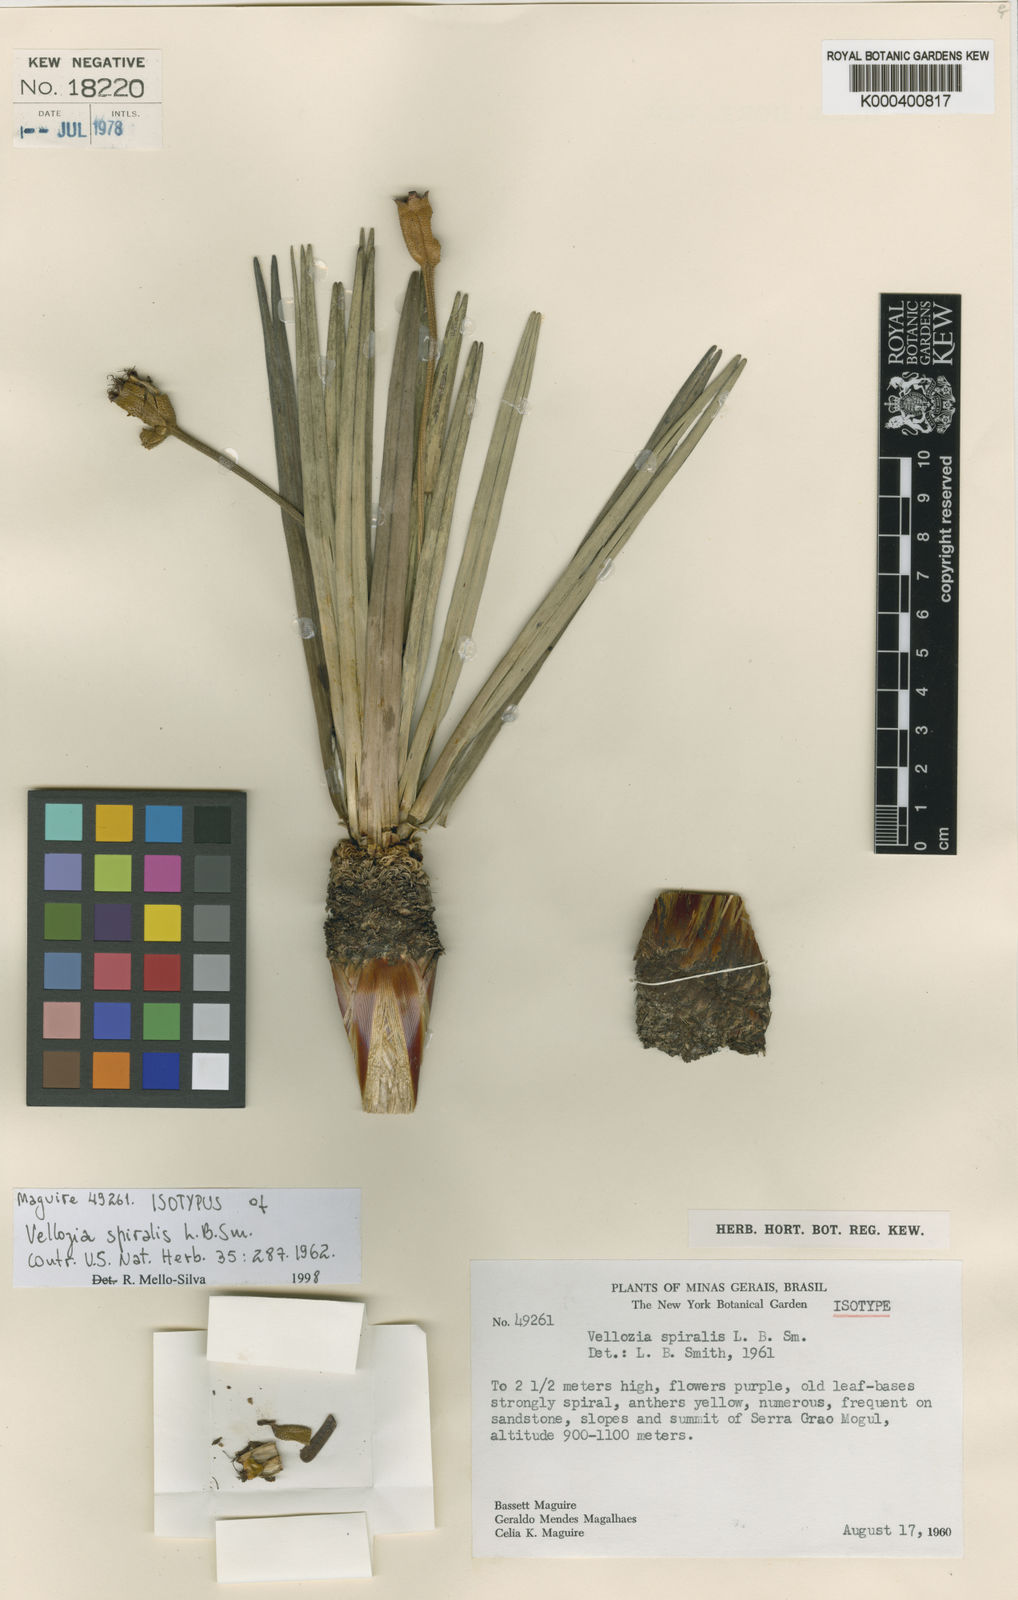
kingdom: Plantae
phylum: Tracheophyta
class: Liliopsida
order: Pandanales
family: Velloziaceae
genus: Vellozia
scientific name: Vellozia spiralis
